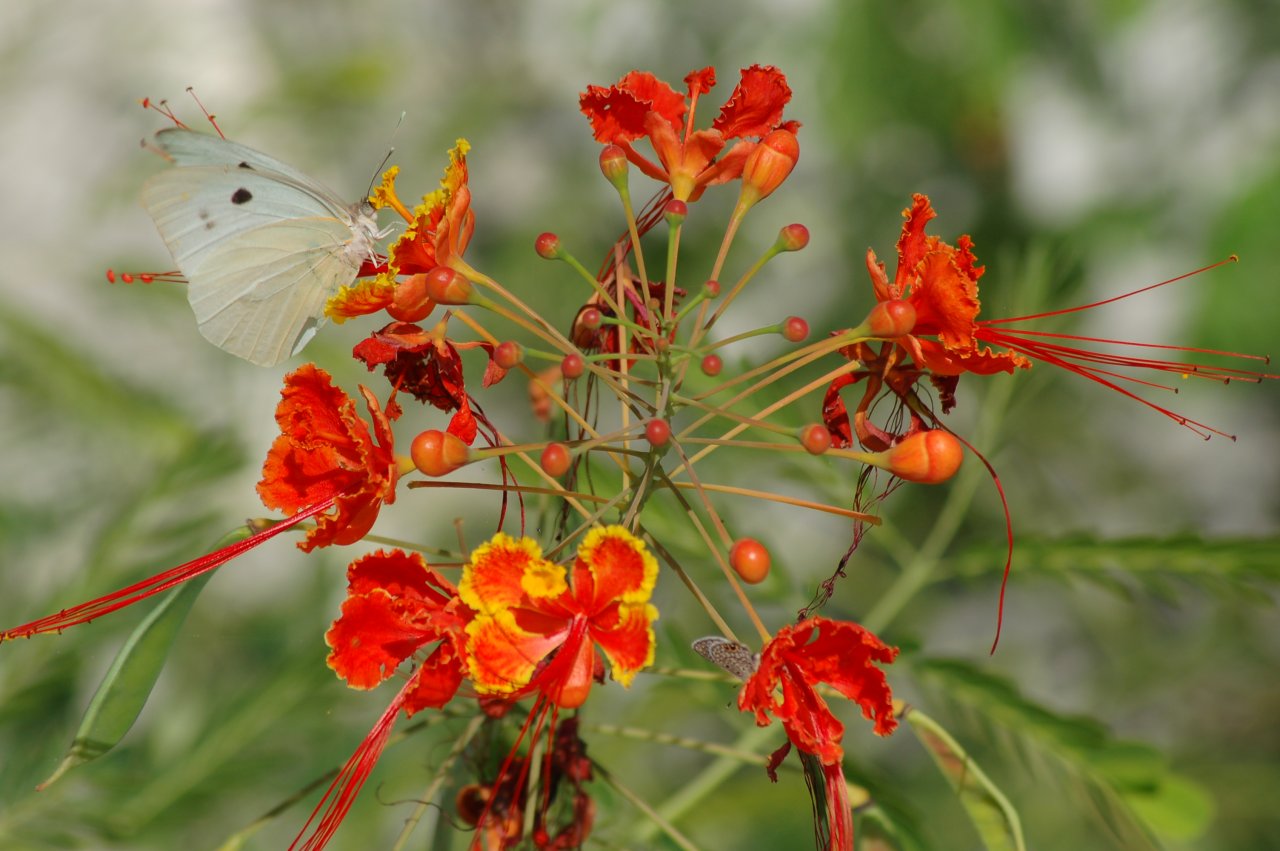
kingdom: Animalia
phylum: Arthropoda
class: Insecta
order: Lepidoptera
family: Pieridae
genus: Ganyra
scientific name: Ganyra josephina
